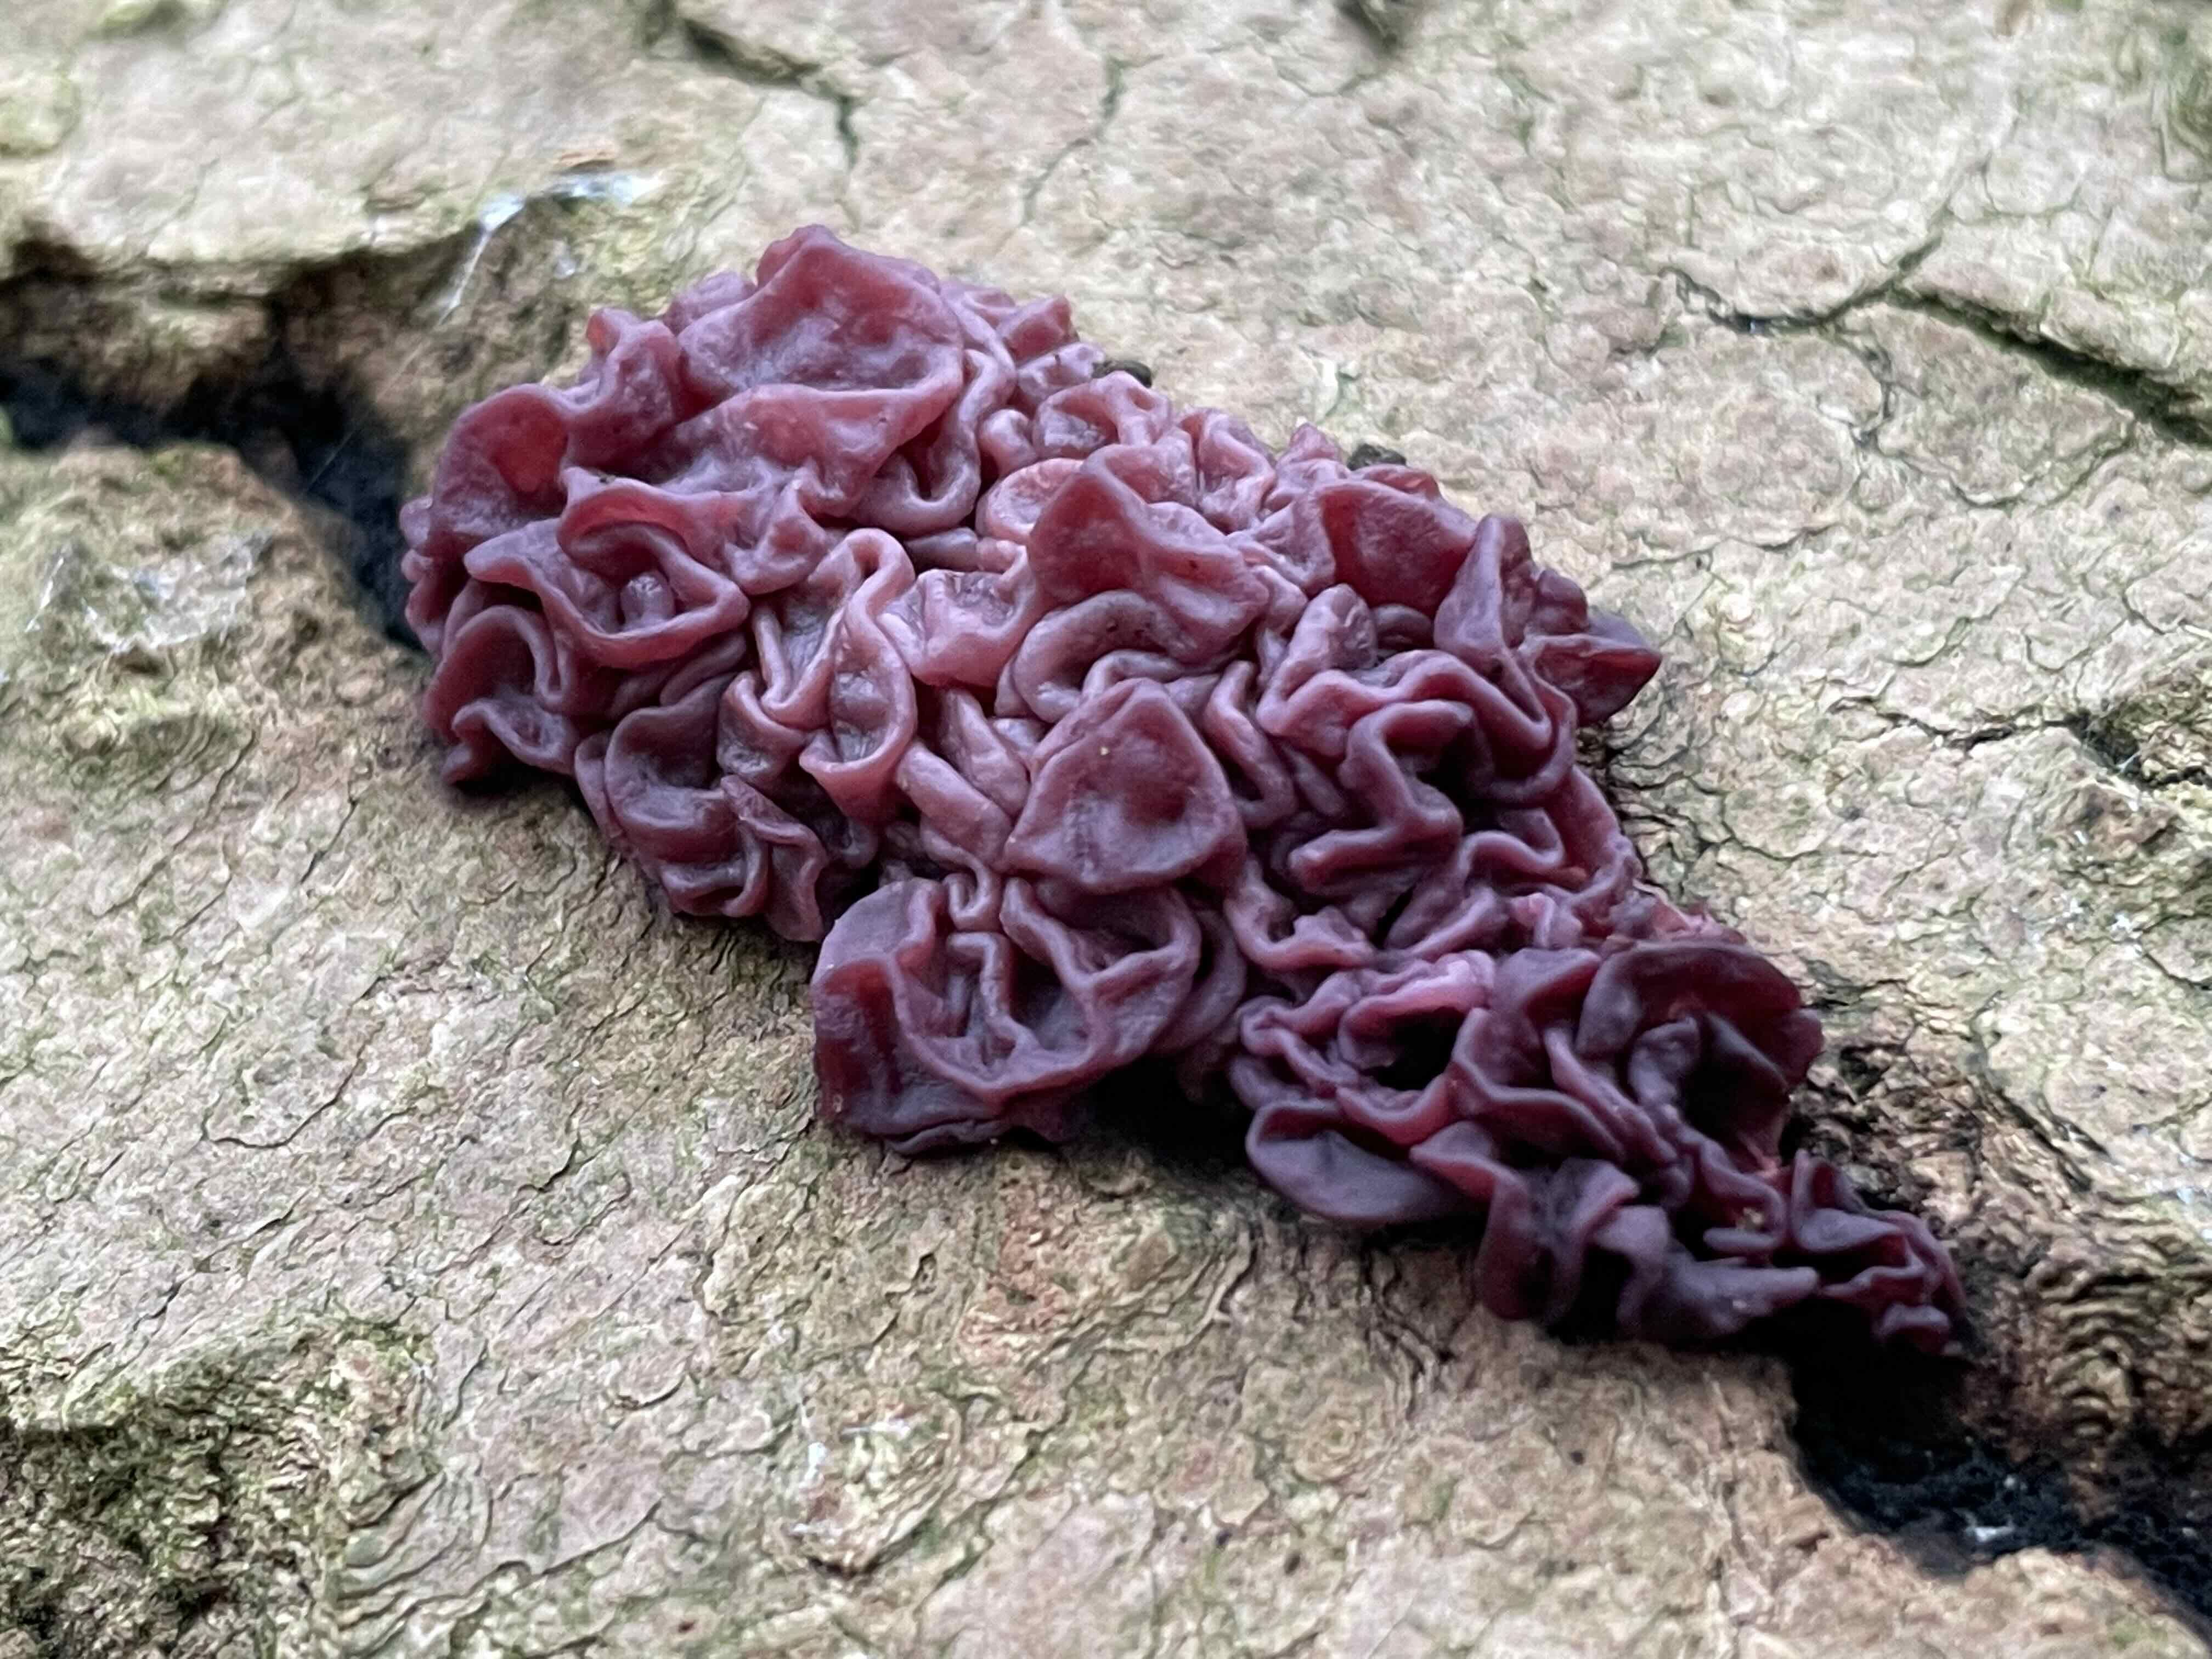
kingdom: Fungi
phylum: Ascomycota
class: Leotiomycetes
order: Helotiales
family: Gelatinodiscaceae
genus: Ascocoryne
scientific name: Ascocoryne sarcoides
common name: rødlilla sejskive
